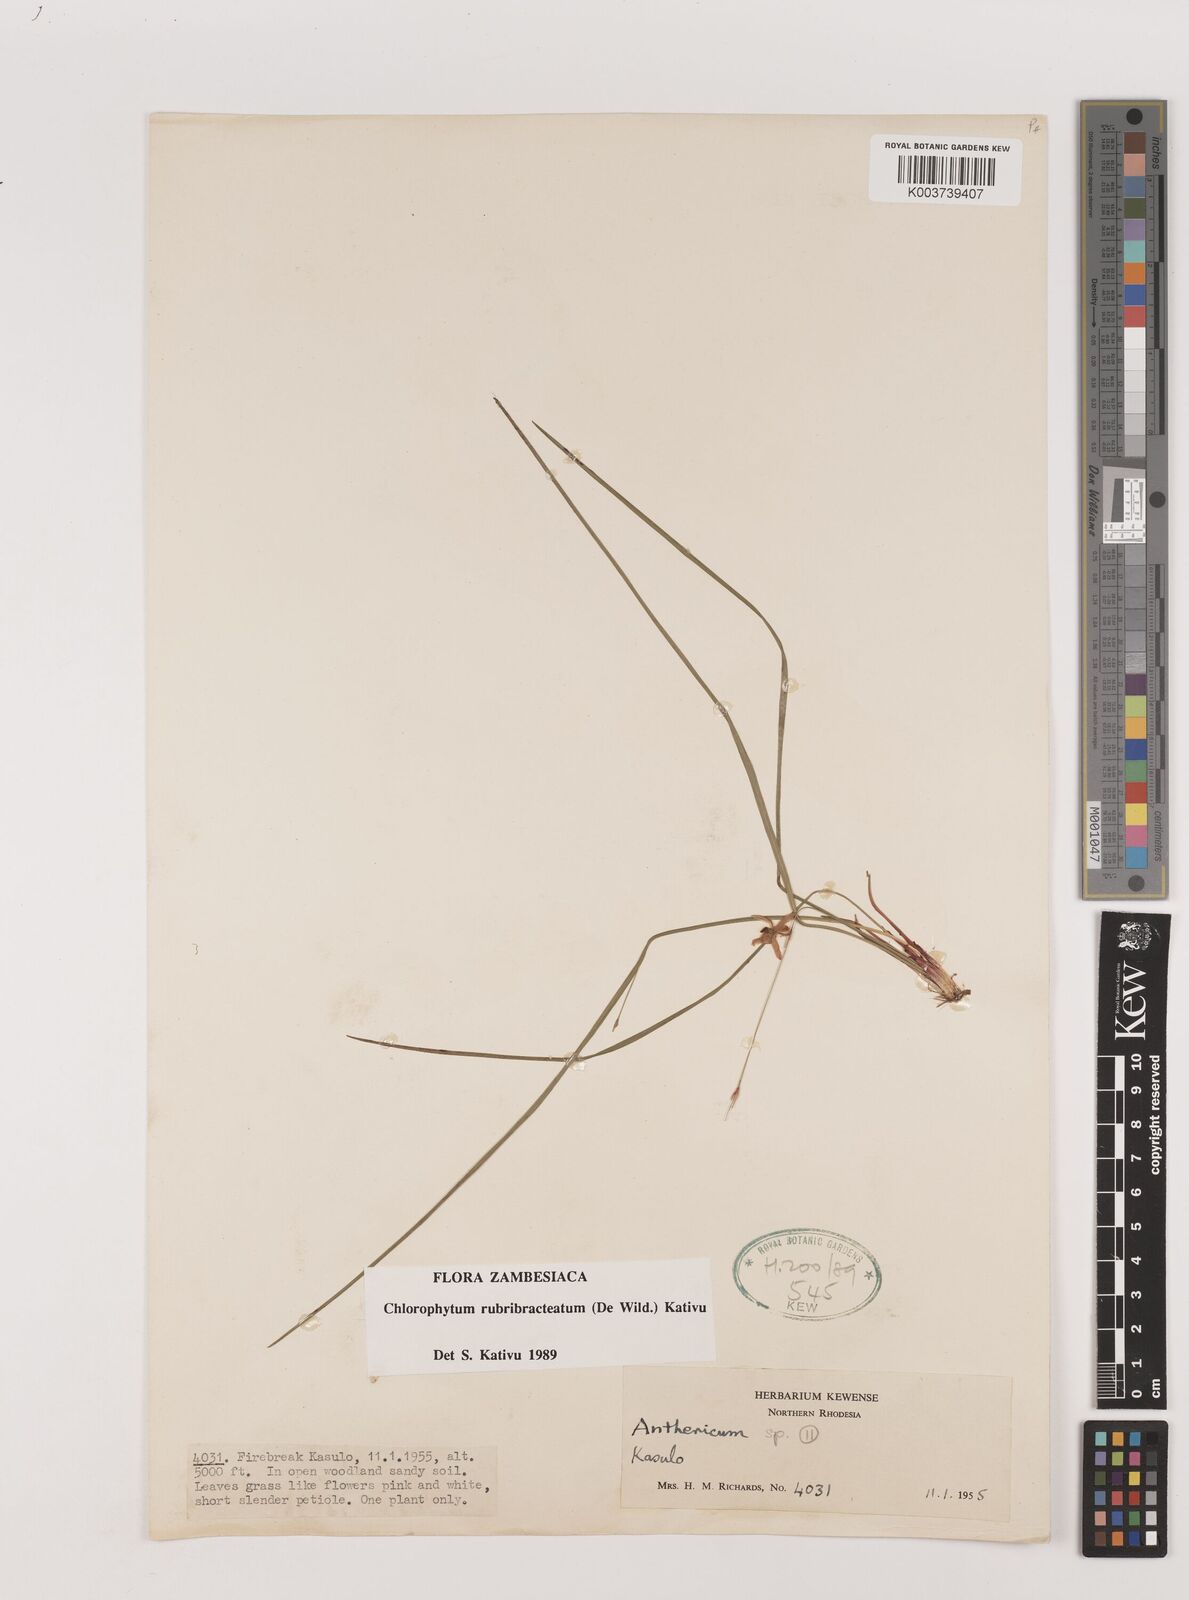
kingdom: Plantae
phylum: Tracheophyta
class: Liliopsida
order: Asparagales
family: Asparagaceae
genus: Chlorophytum
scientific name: Chlorophytum rubribracteatum
